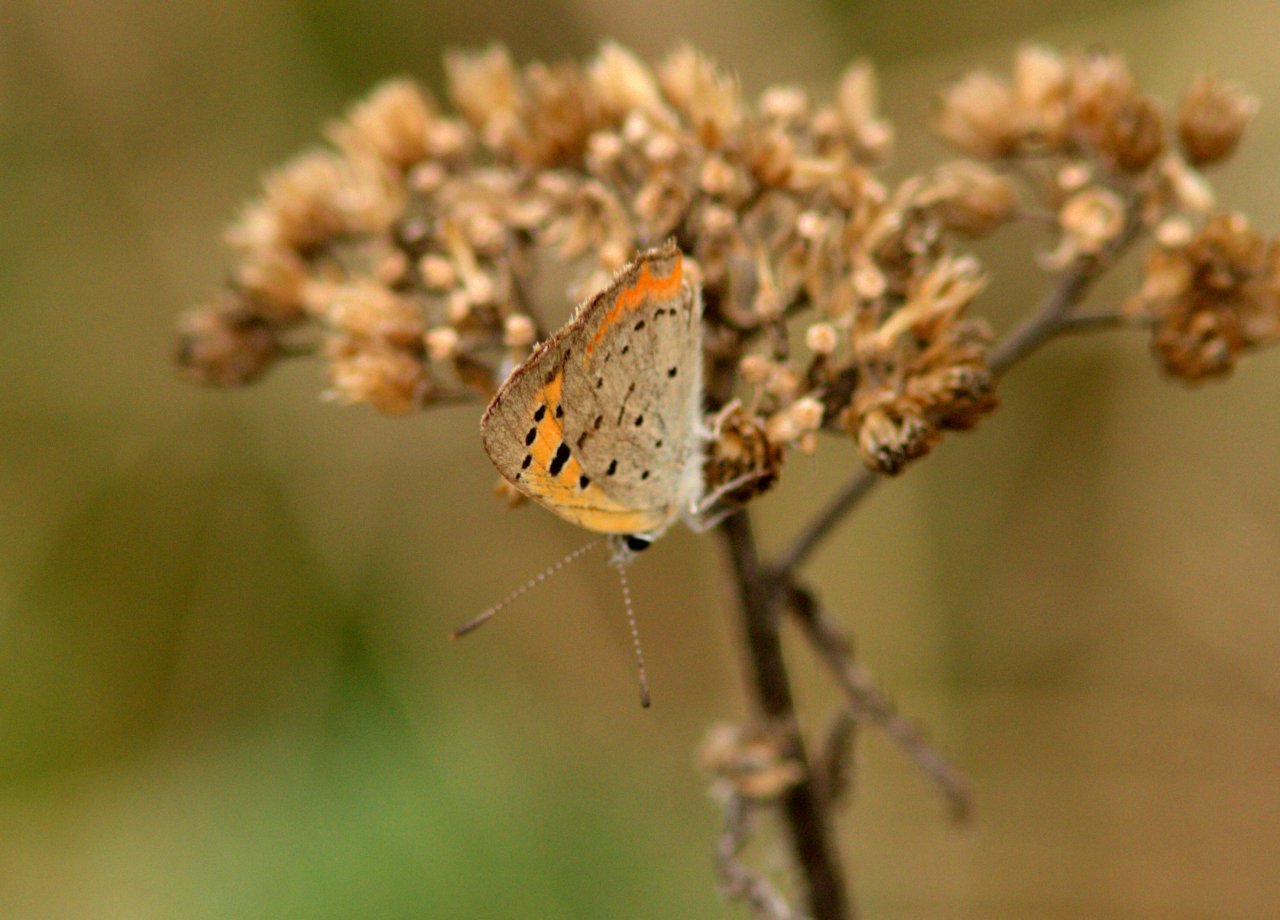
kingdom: Animalia
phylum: Arthropoda
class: Insecta
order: Lepidoptera
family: Lycaenidae
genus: Lycaena
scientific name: Lycaena phlaeas
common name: American Copper
